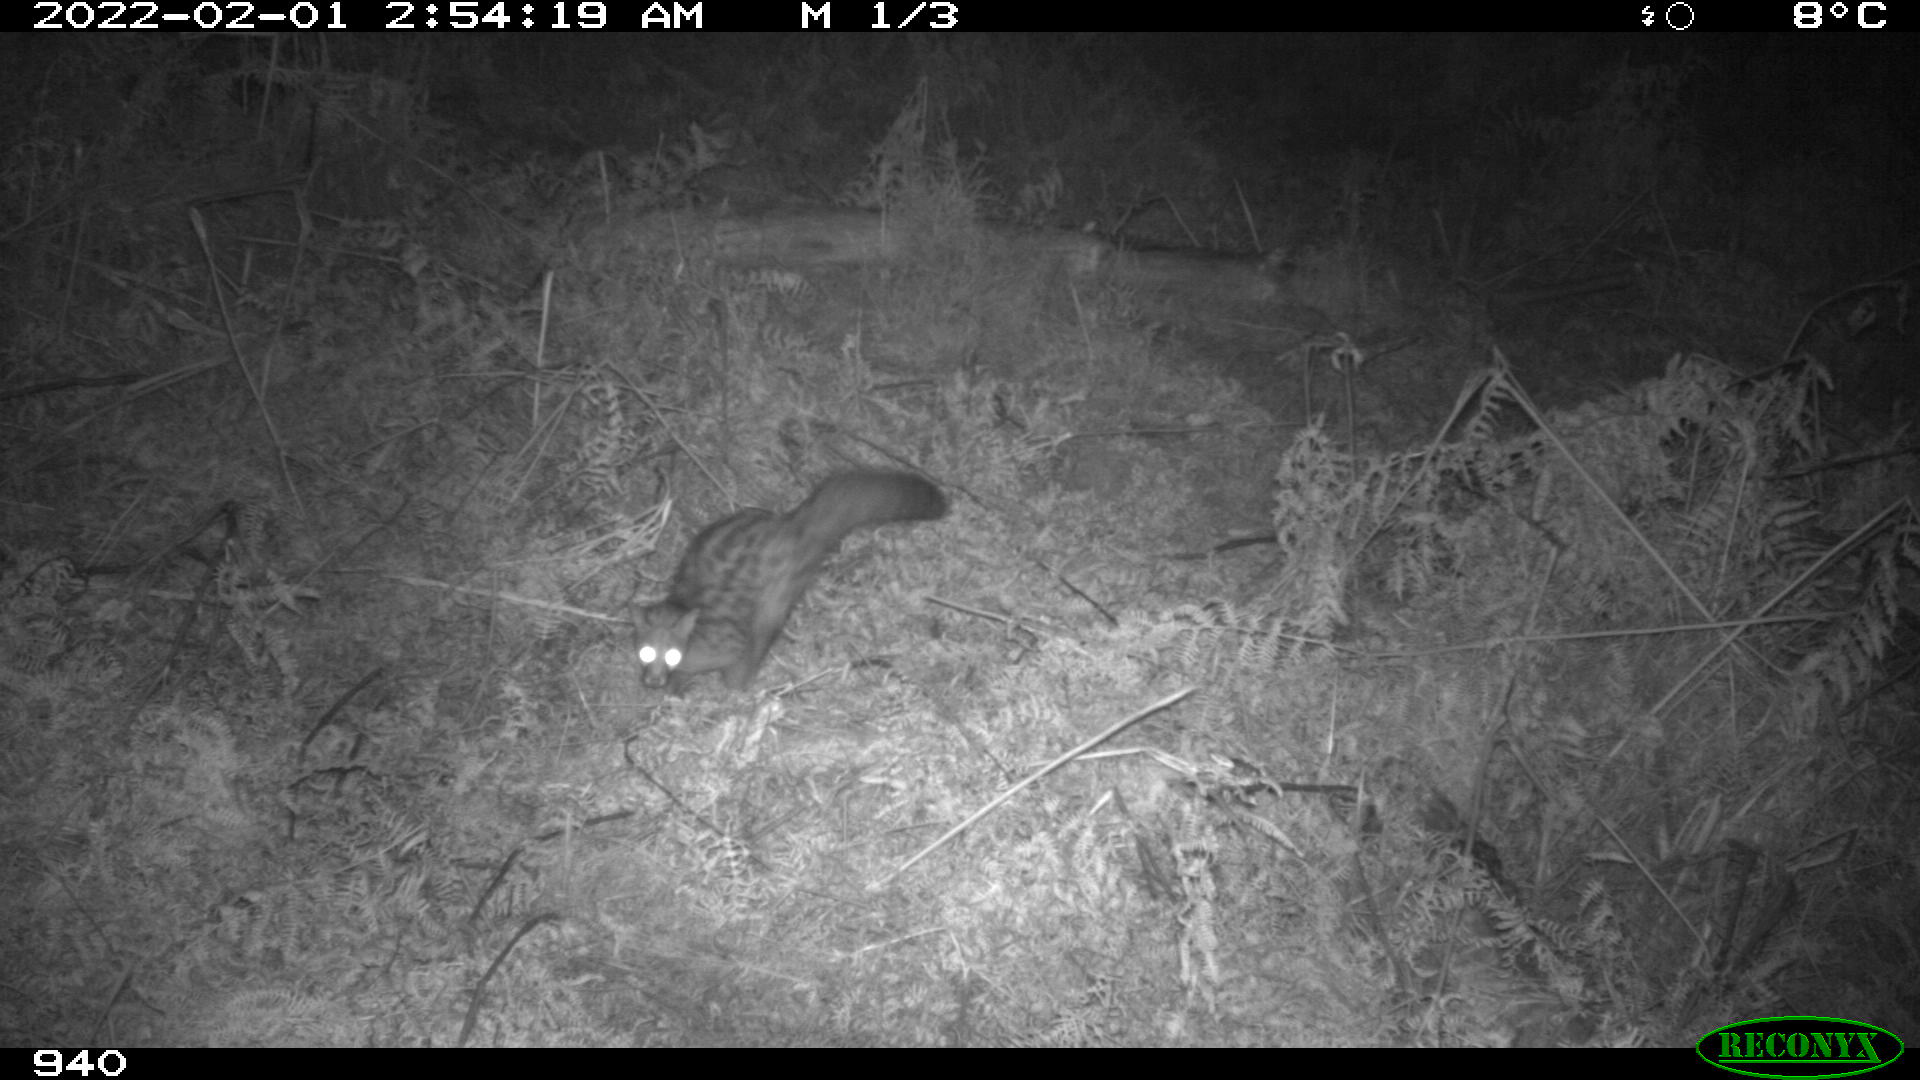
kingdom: Animalia
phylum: Chordata
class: Mammalia
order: Carnivora
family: Viverridae
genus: Genetta
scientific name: Genetta genetta
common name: Common genet
